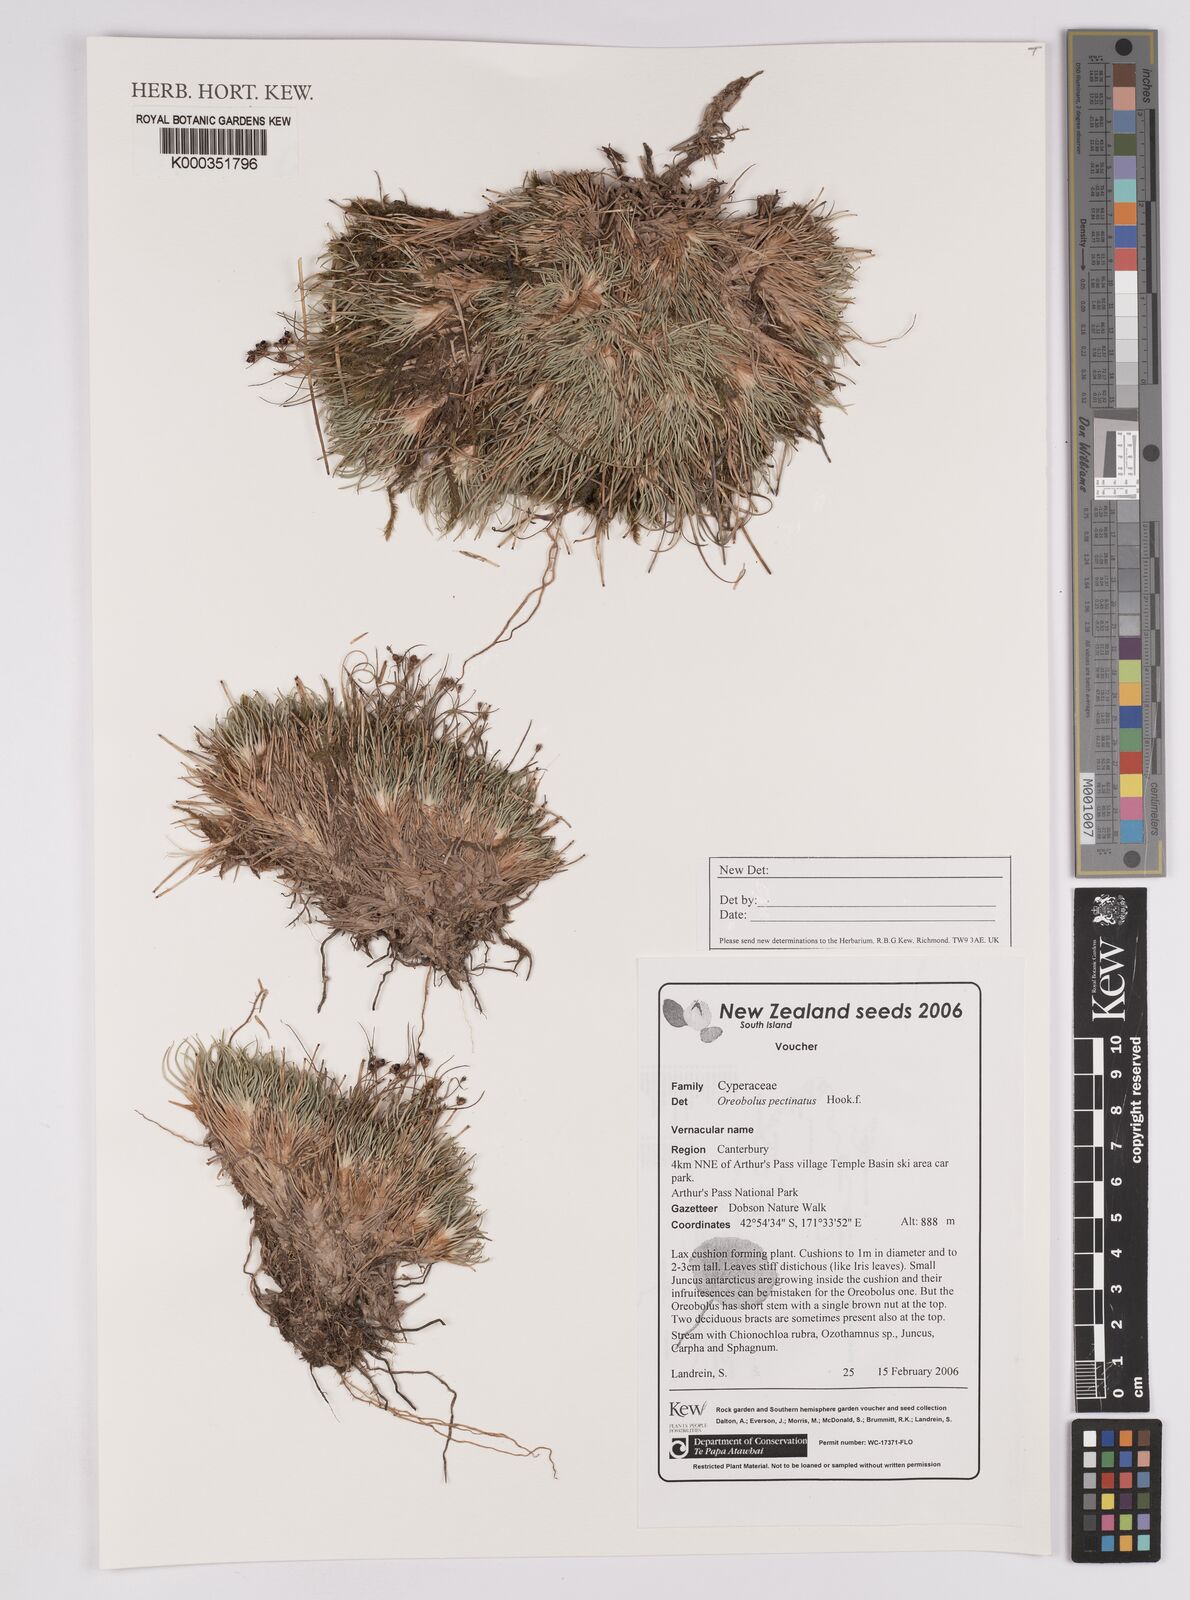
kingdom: Plantae
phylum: Tracheophyta
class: Liliopsida
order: Poales
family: Cyperaceae
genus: Oreobolus
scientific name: Oreobolus pectinatus
